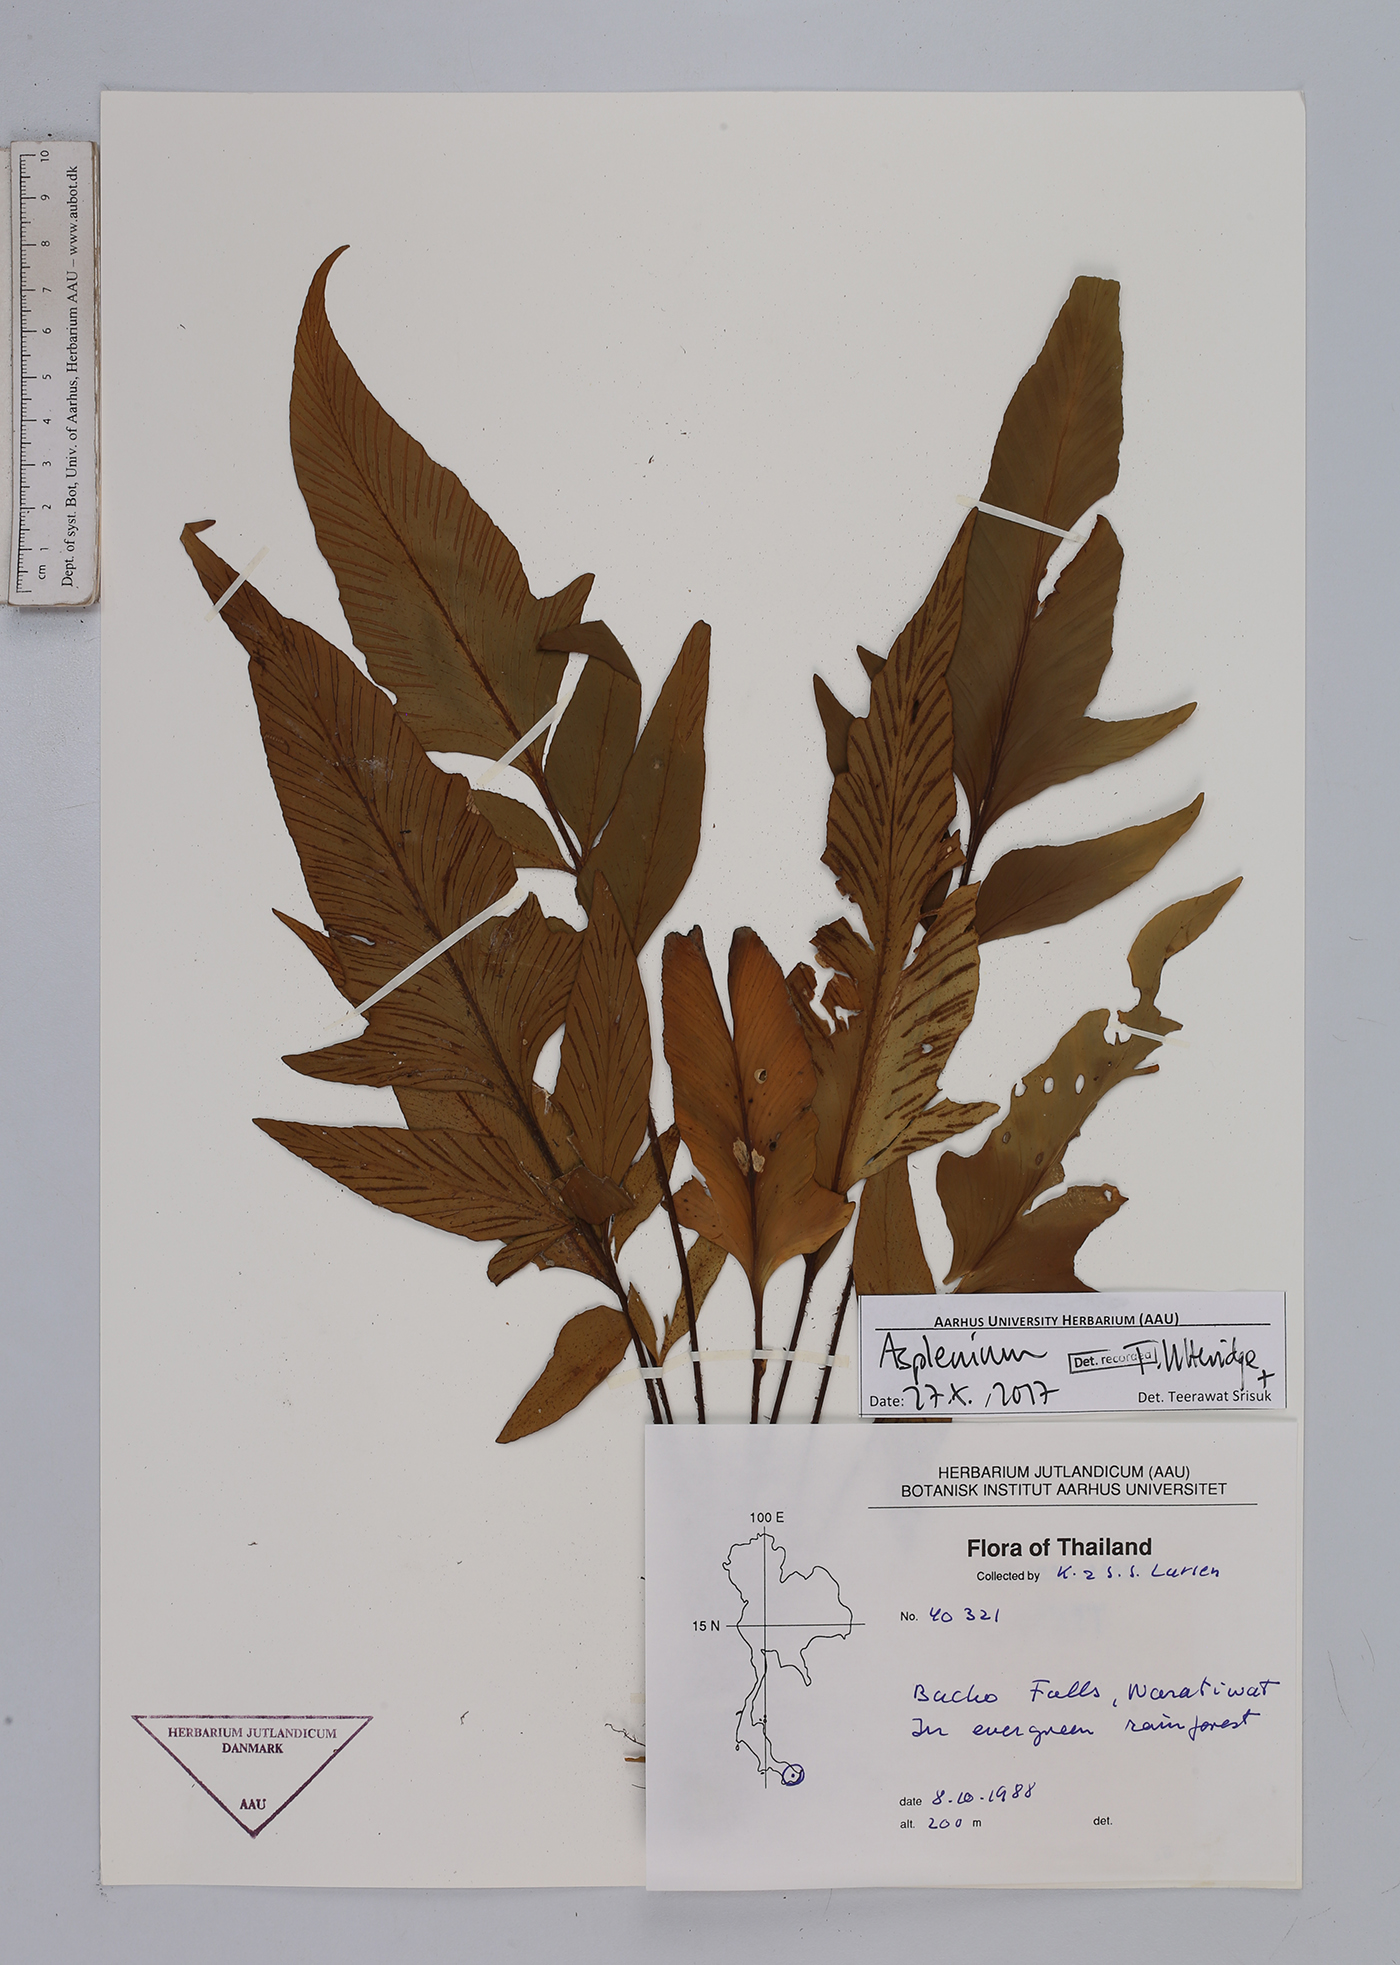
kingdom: Plantae
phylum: Tracheophyta
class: Polypodiopsida
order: Polypodiales
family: Aspleniaceae
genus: Asplenium
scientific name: Asplenium
